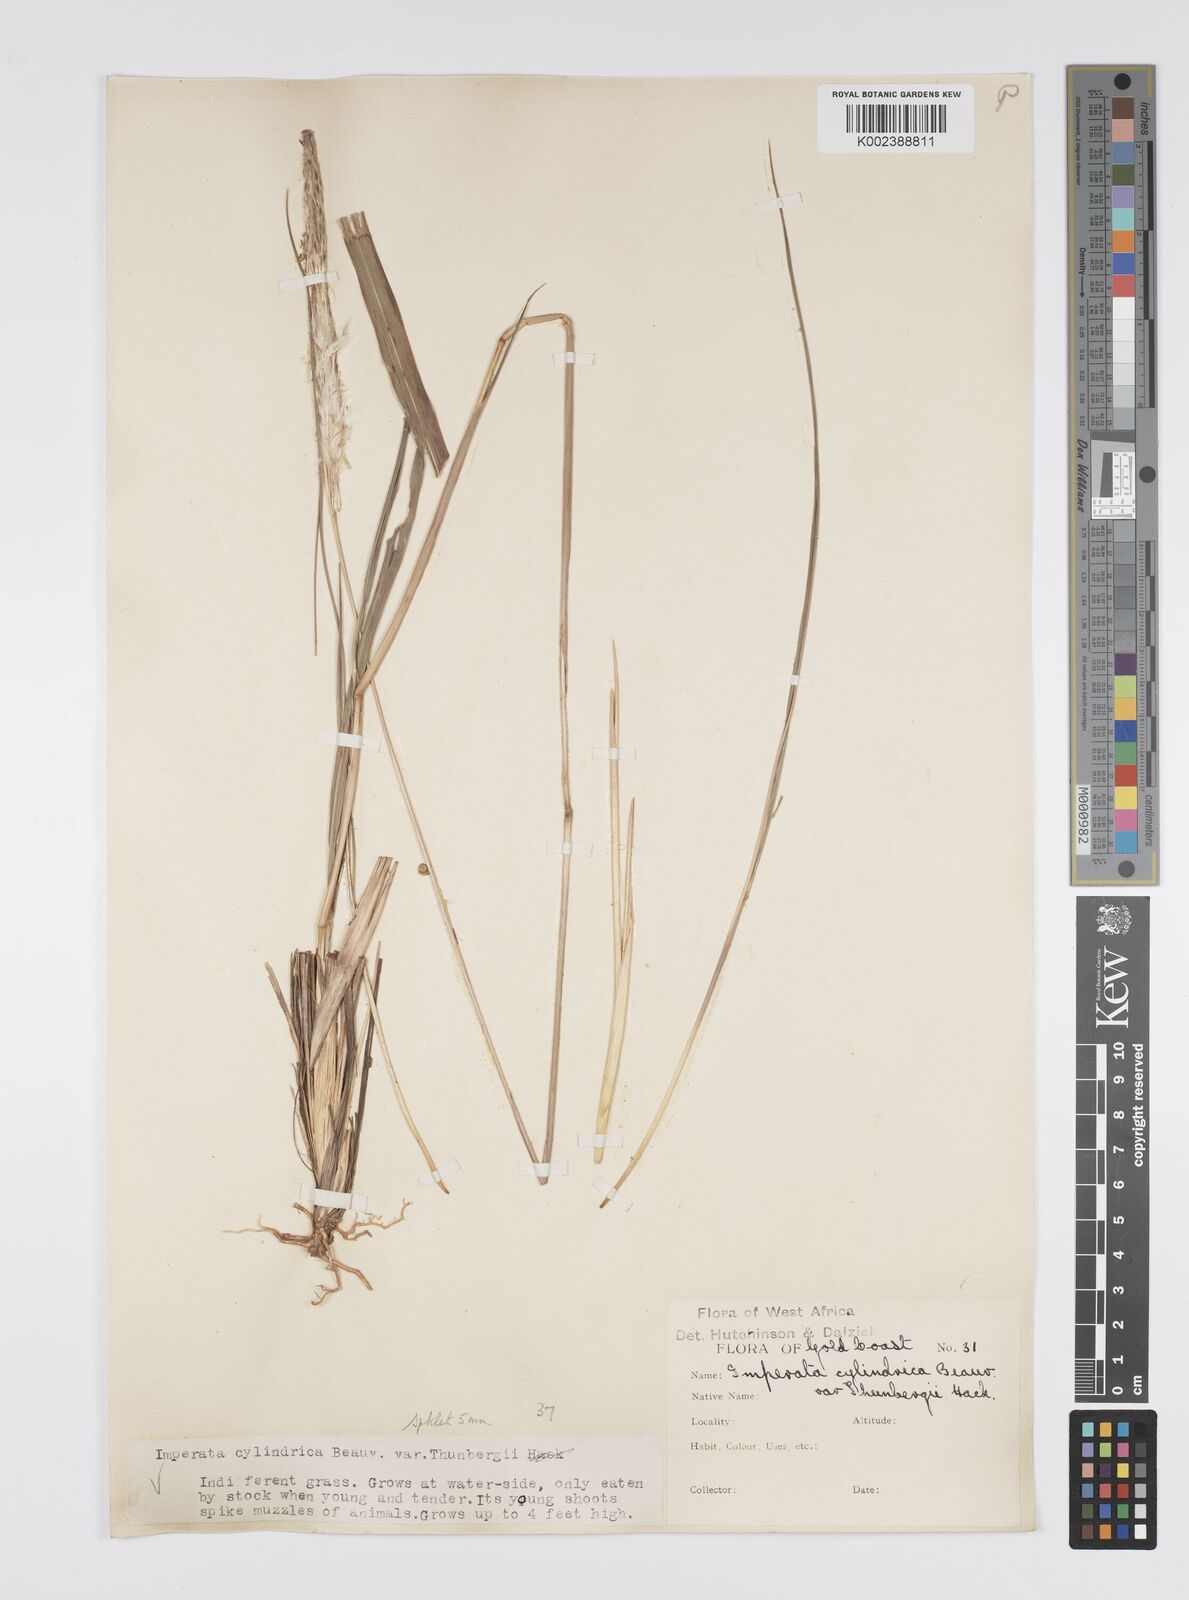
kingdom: Plantae
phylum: Tracheophyta
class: Liliopsida
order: Poales
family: Poaceae
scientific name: Poaceae
